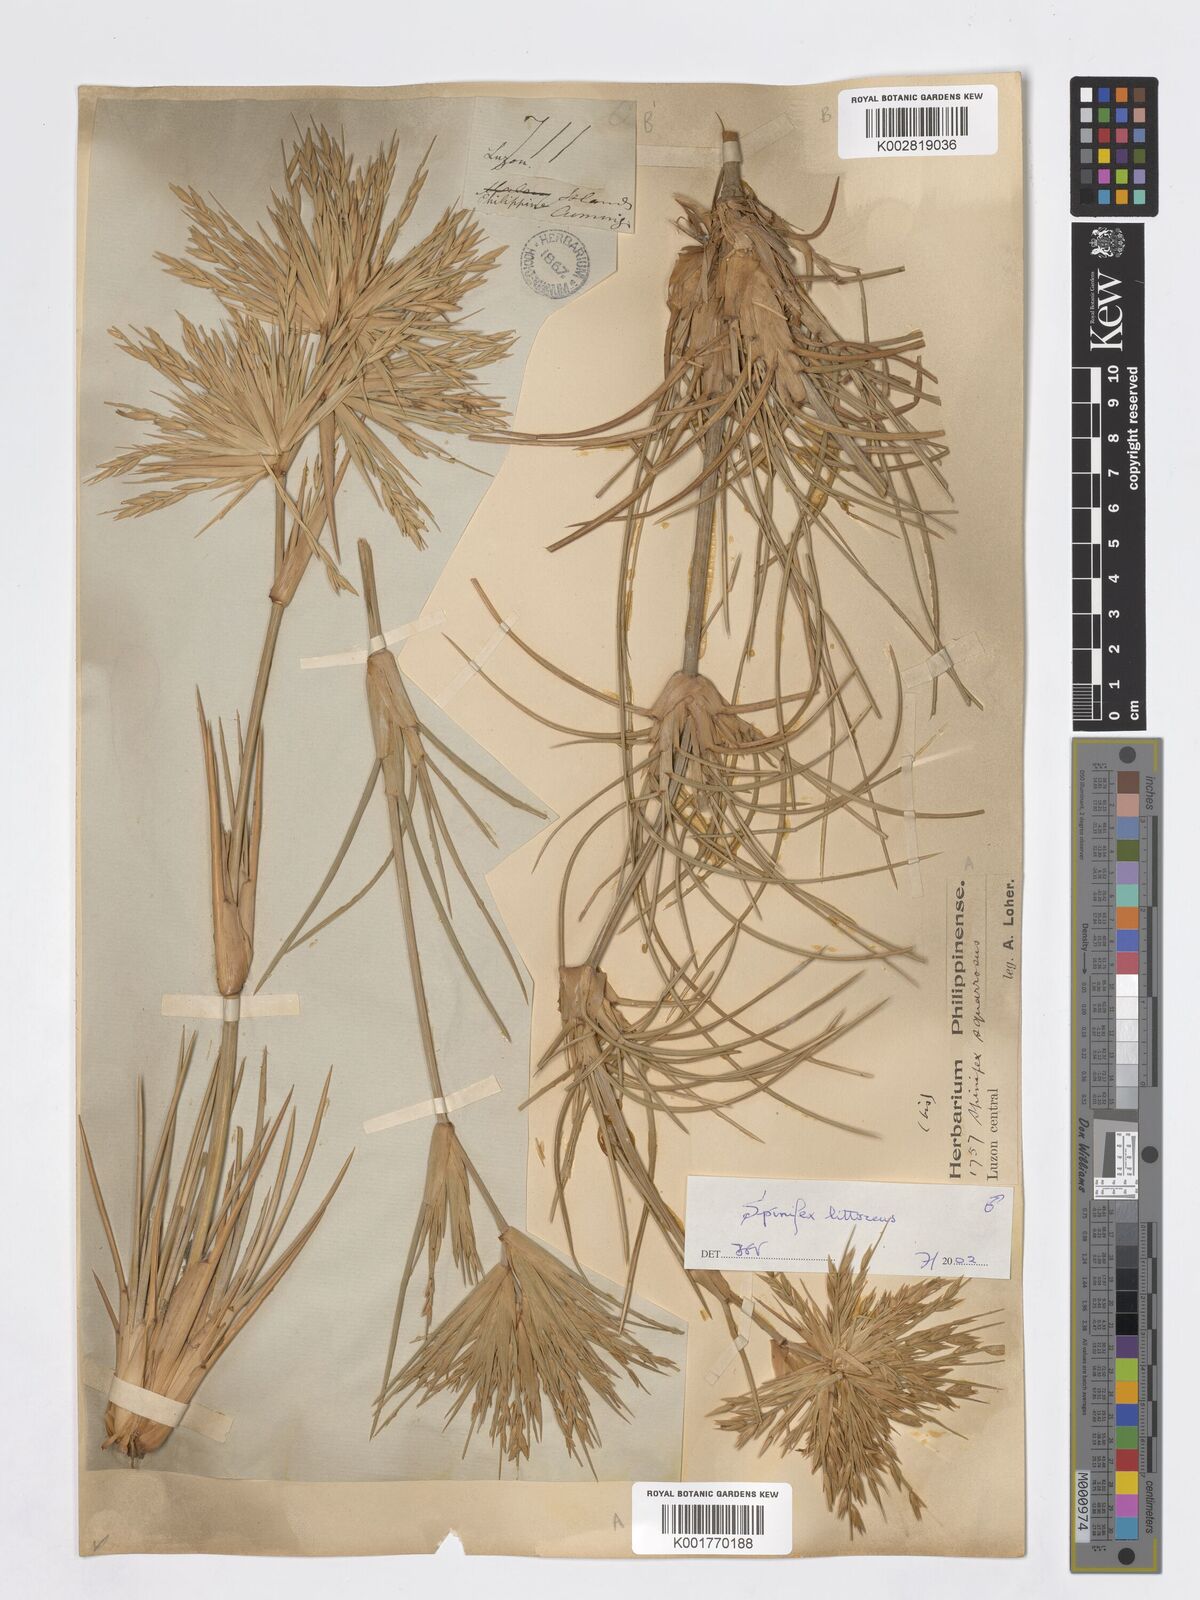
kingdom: Plantae
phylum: Tracheophyta
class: Liliopsida
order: Poales
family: Poaceae
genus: Spinifex
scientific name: Spinifex littoreus
